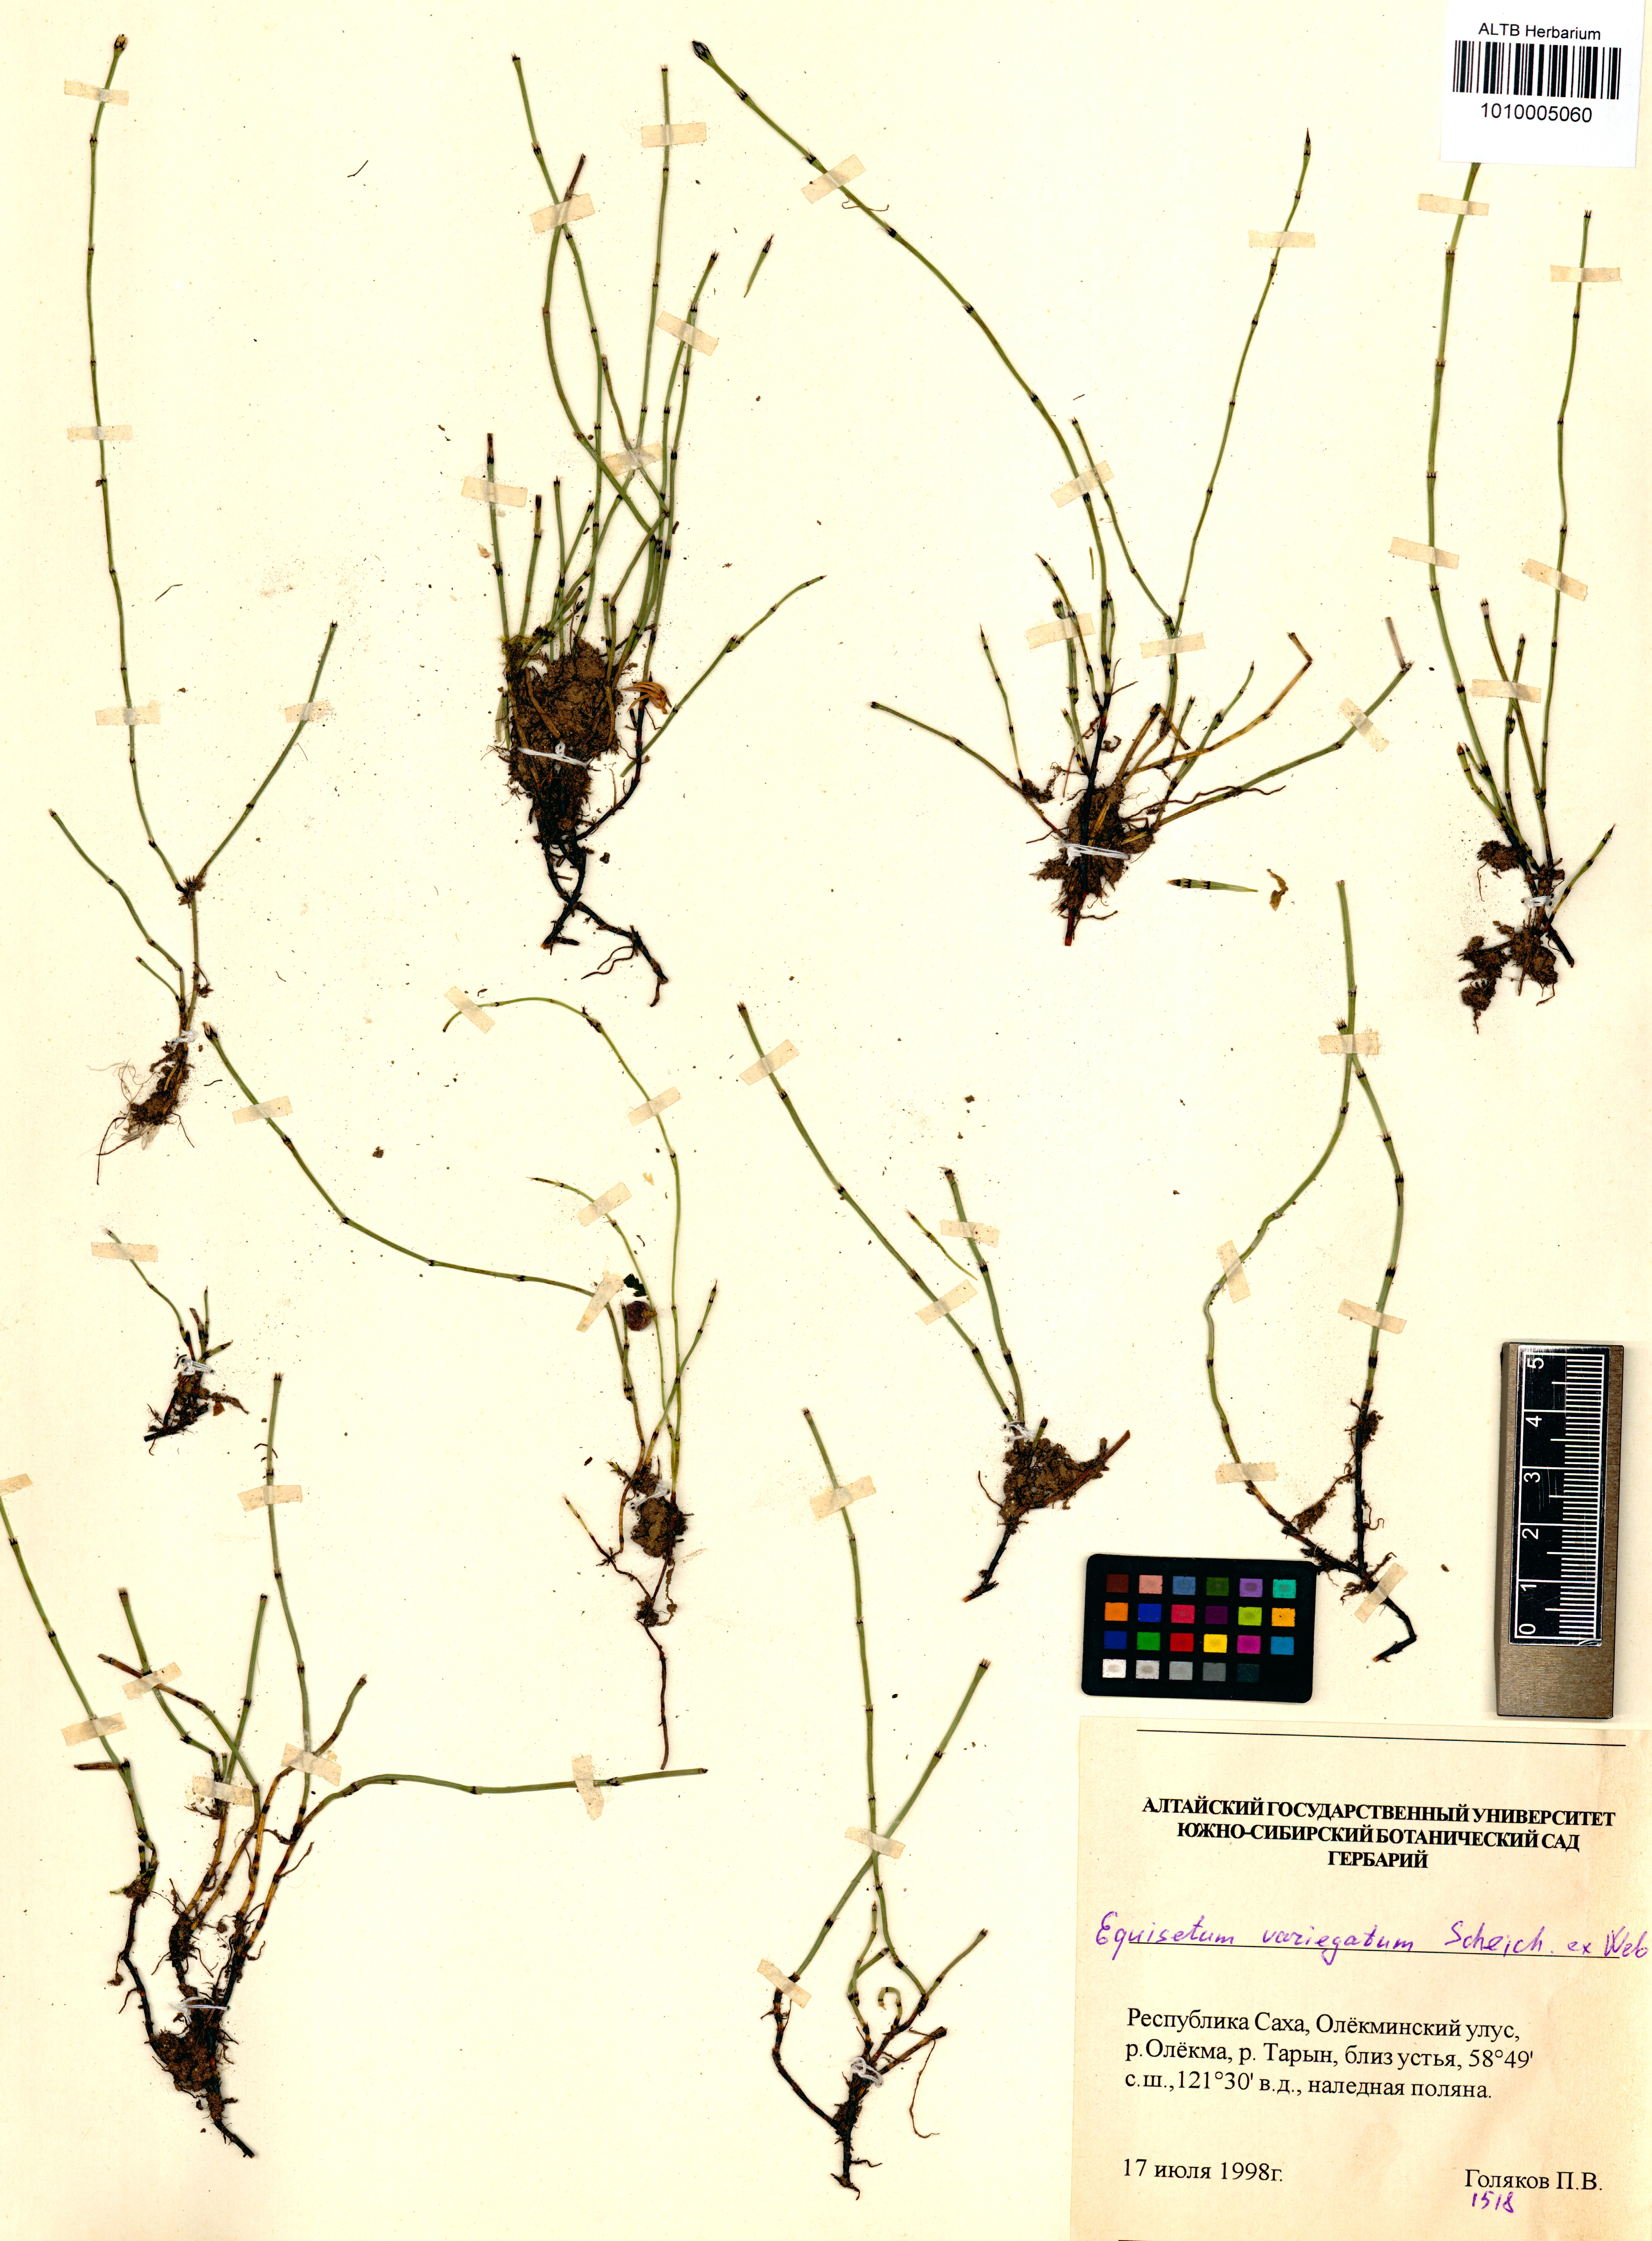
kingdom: Plantae
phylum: Tracheophyta
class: Polypodiopsida
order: Equisetales
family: Equisetaceae
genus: Equisetum
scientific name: Equisetum variegatum
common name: Variegated horsetail
